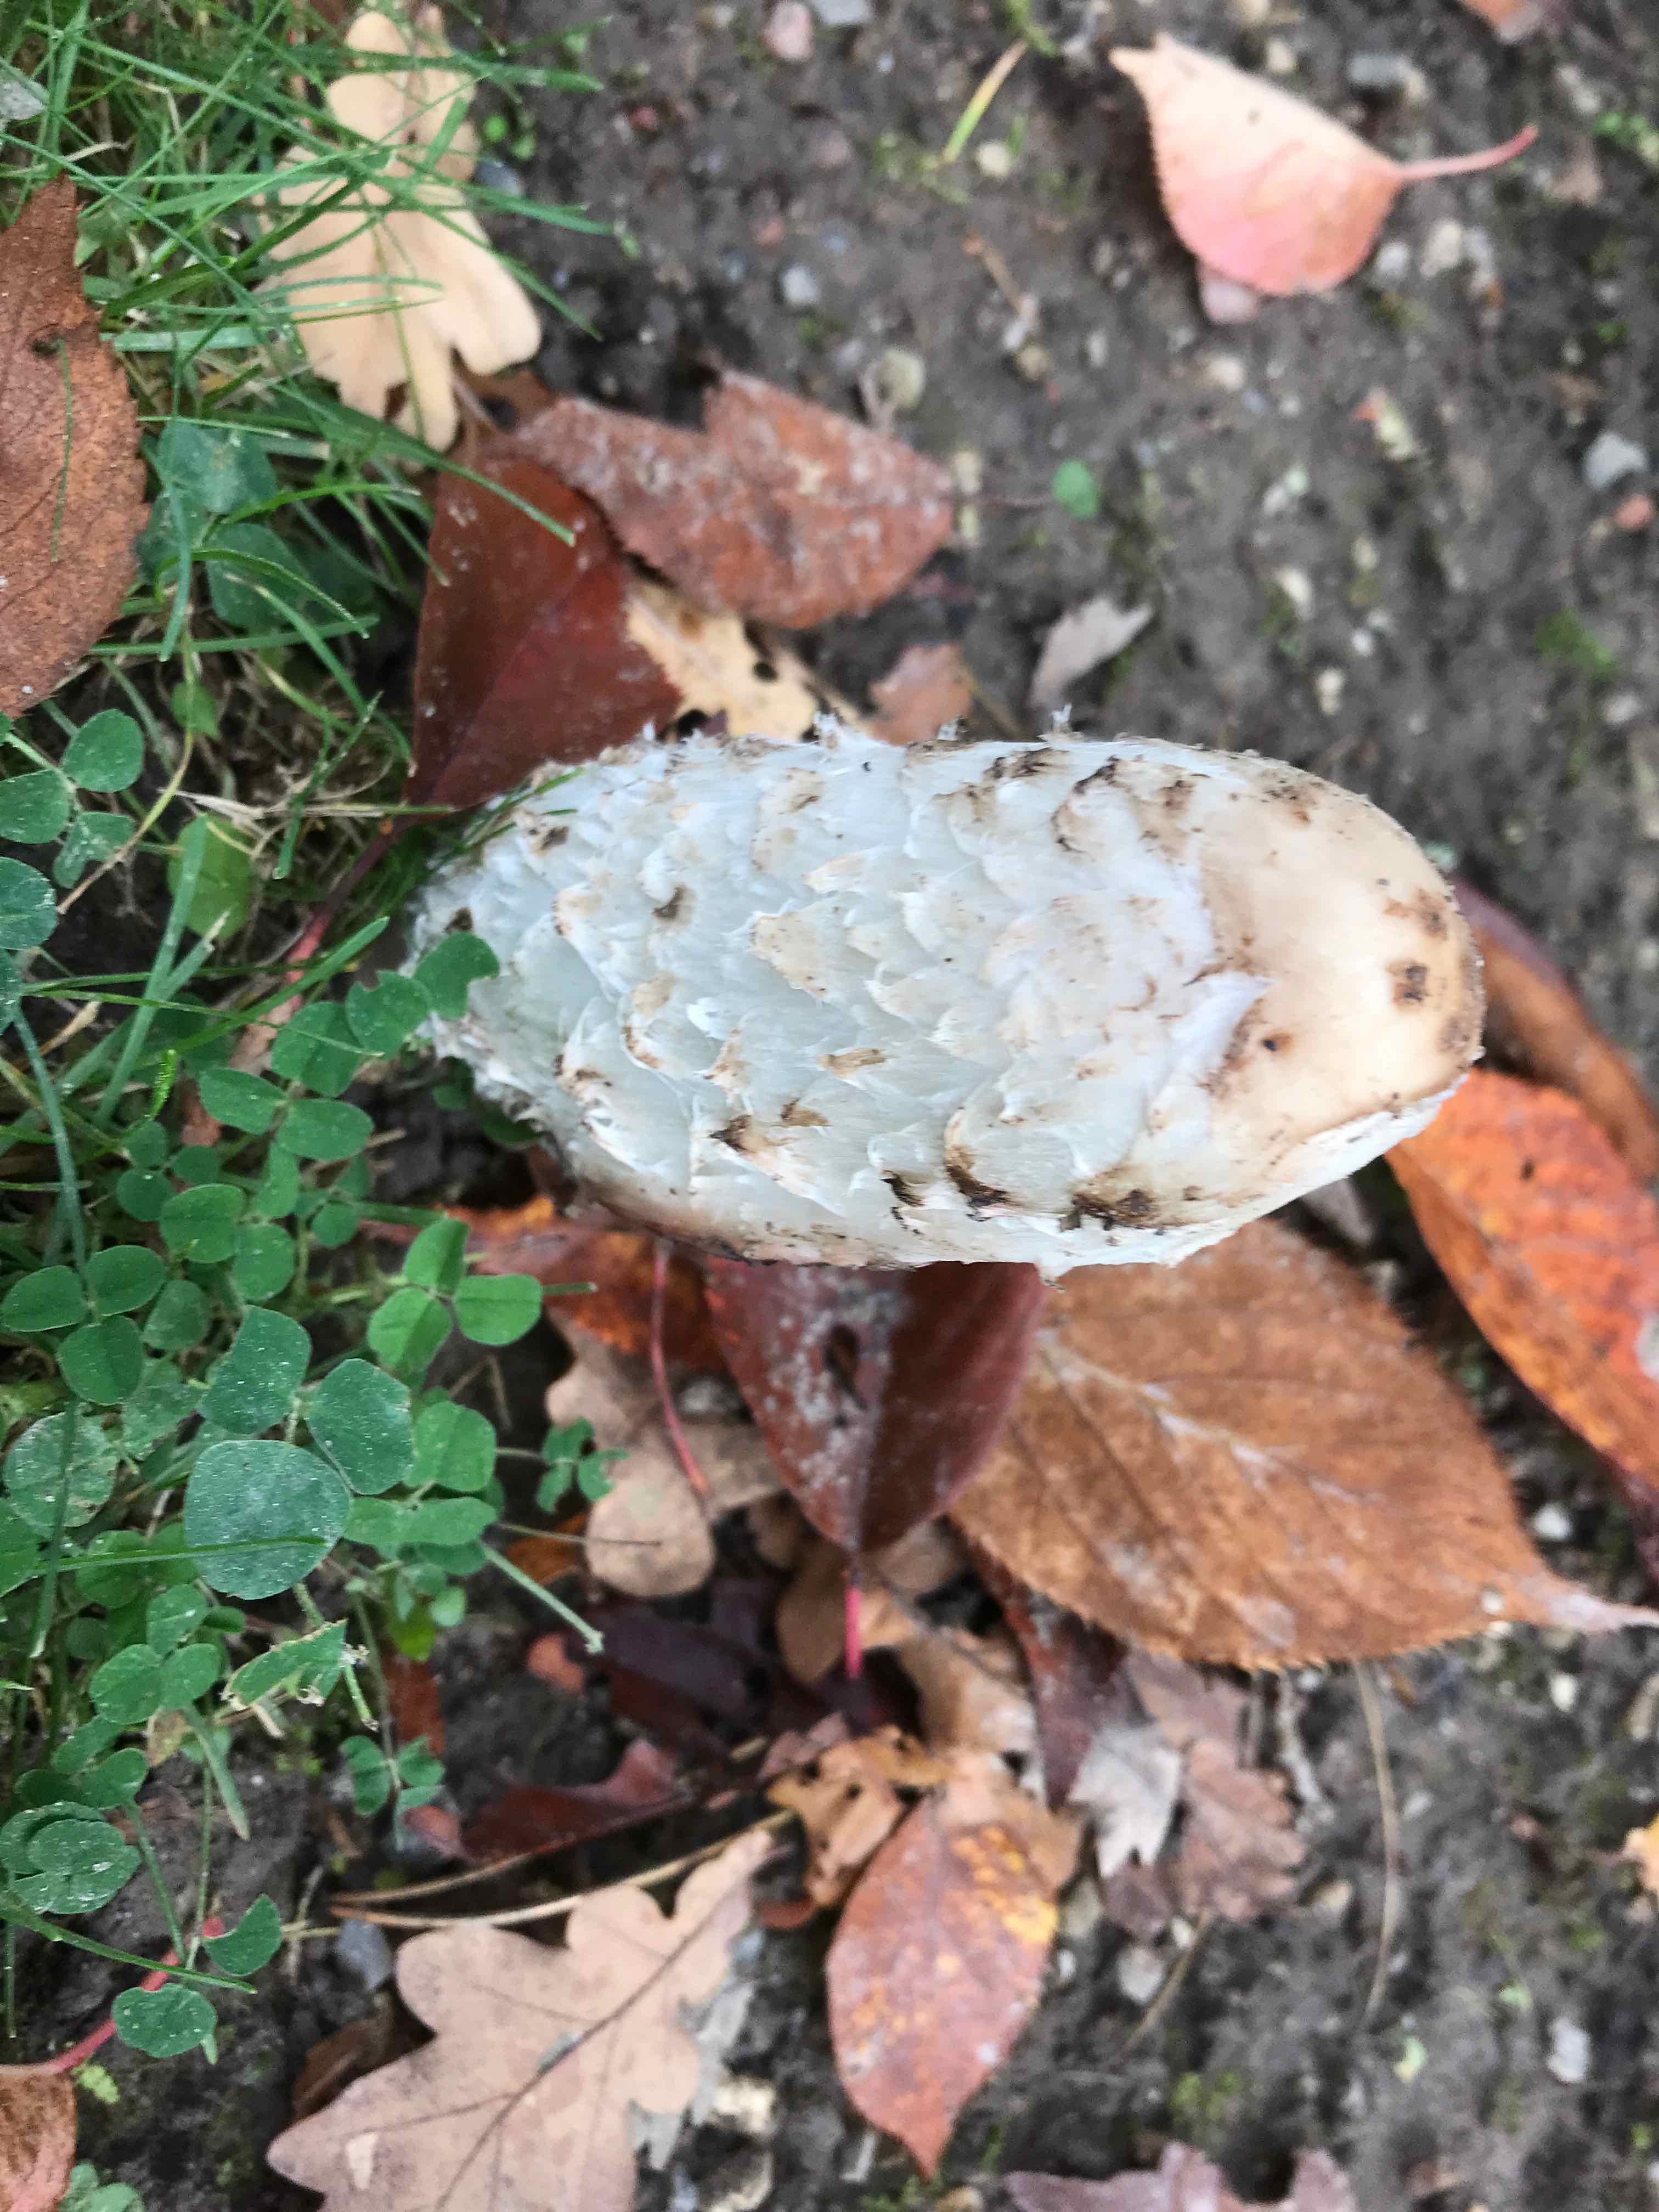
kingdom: Fungi
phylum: Basidiomycota
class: Agaricomycetes
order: Agaricales
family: Agaricaceae
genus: Coprinus
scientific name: Coprinus comatus
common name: stor parykhat
